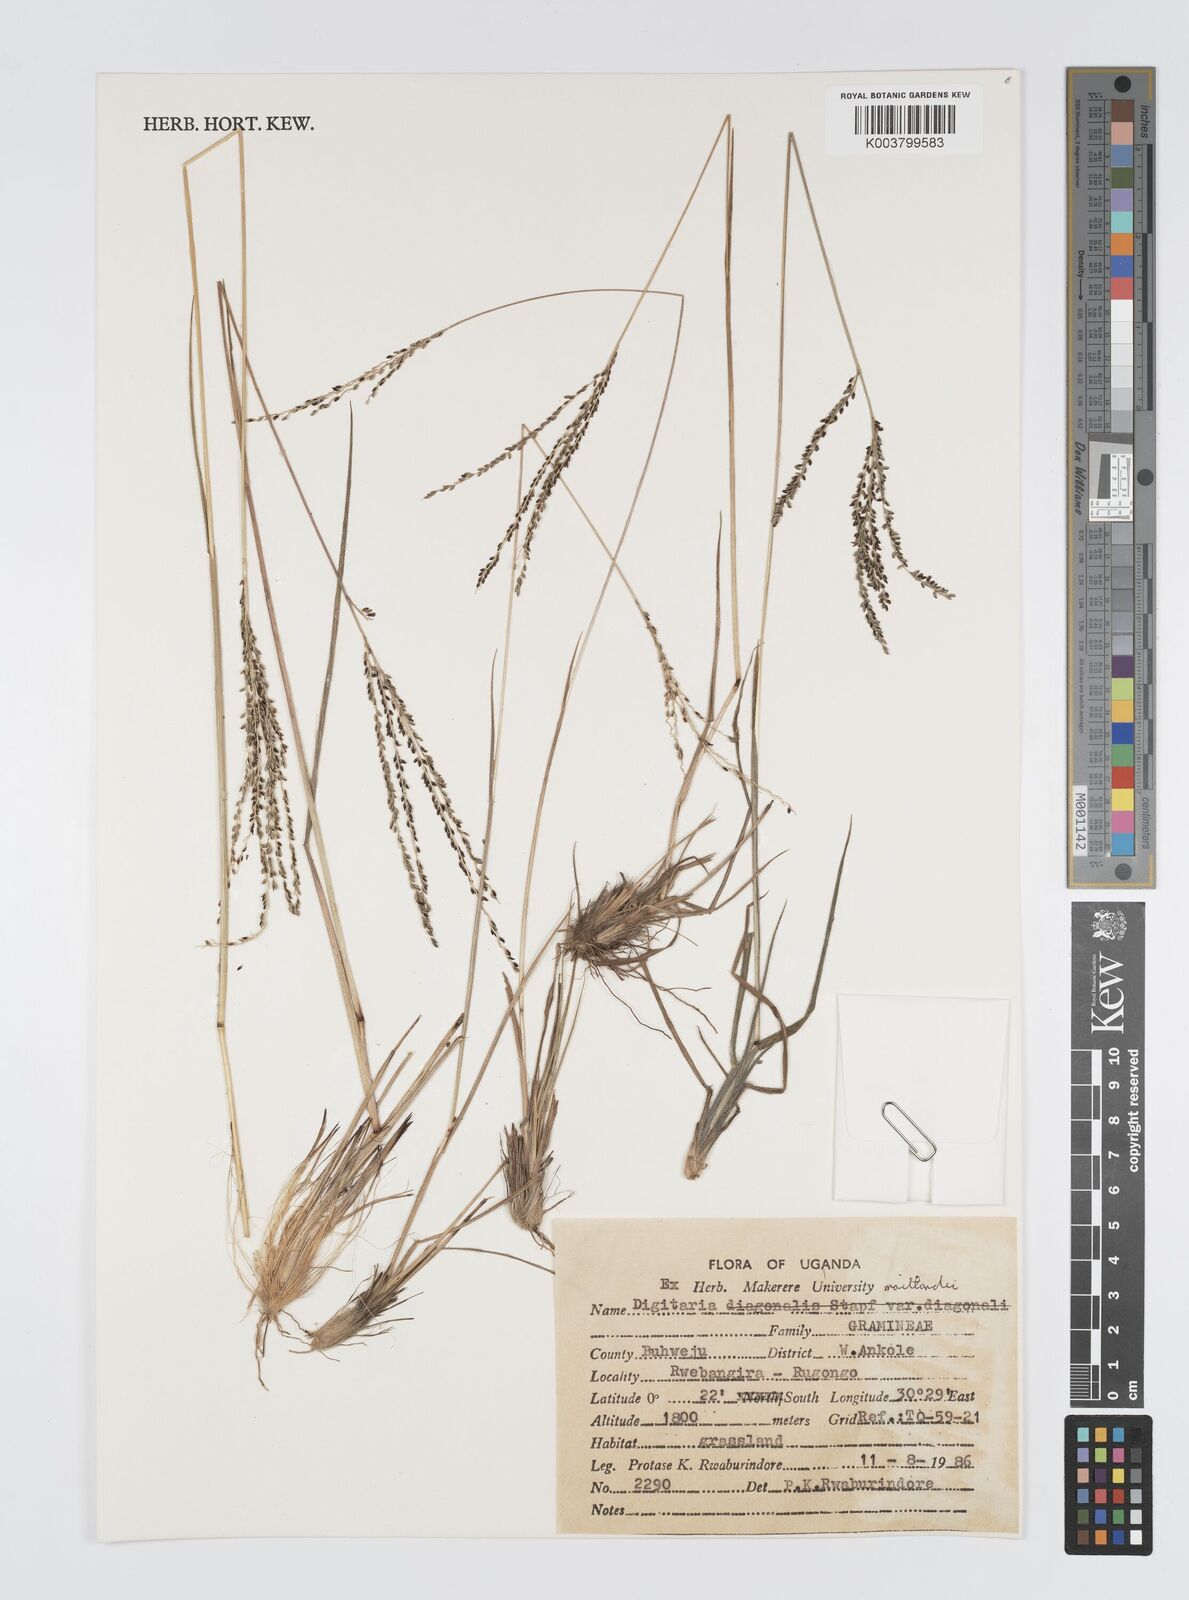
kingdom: Plantae
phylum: Tracheophyta
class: Liliopsida
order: Poales
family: Poaceae
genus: Digitaria
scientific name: Digitaria maitlandii
